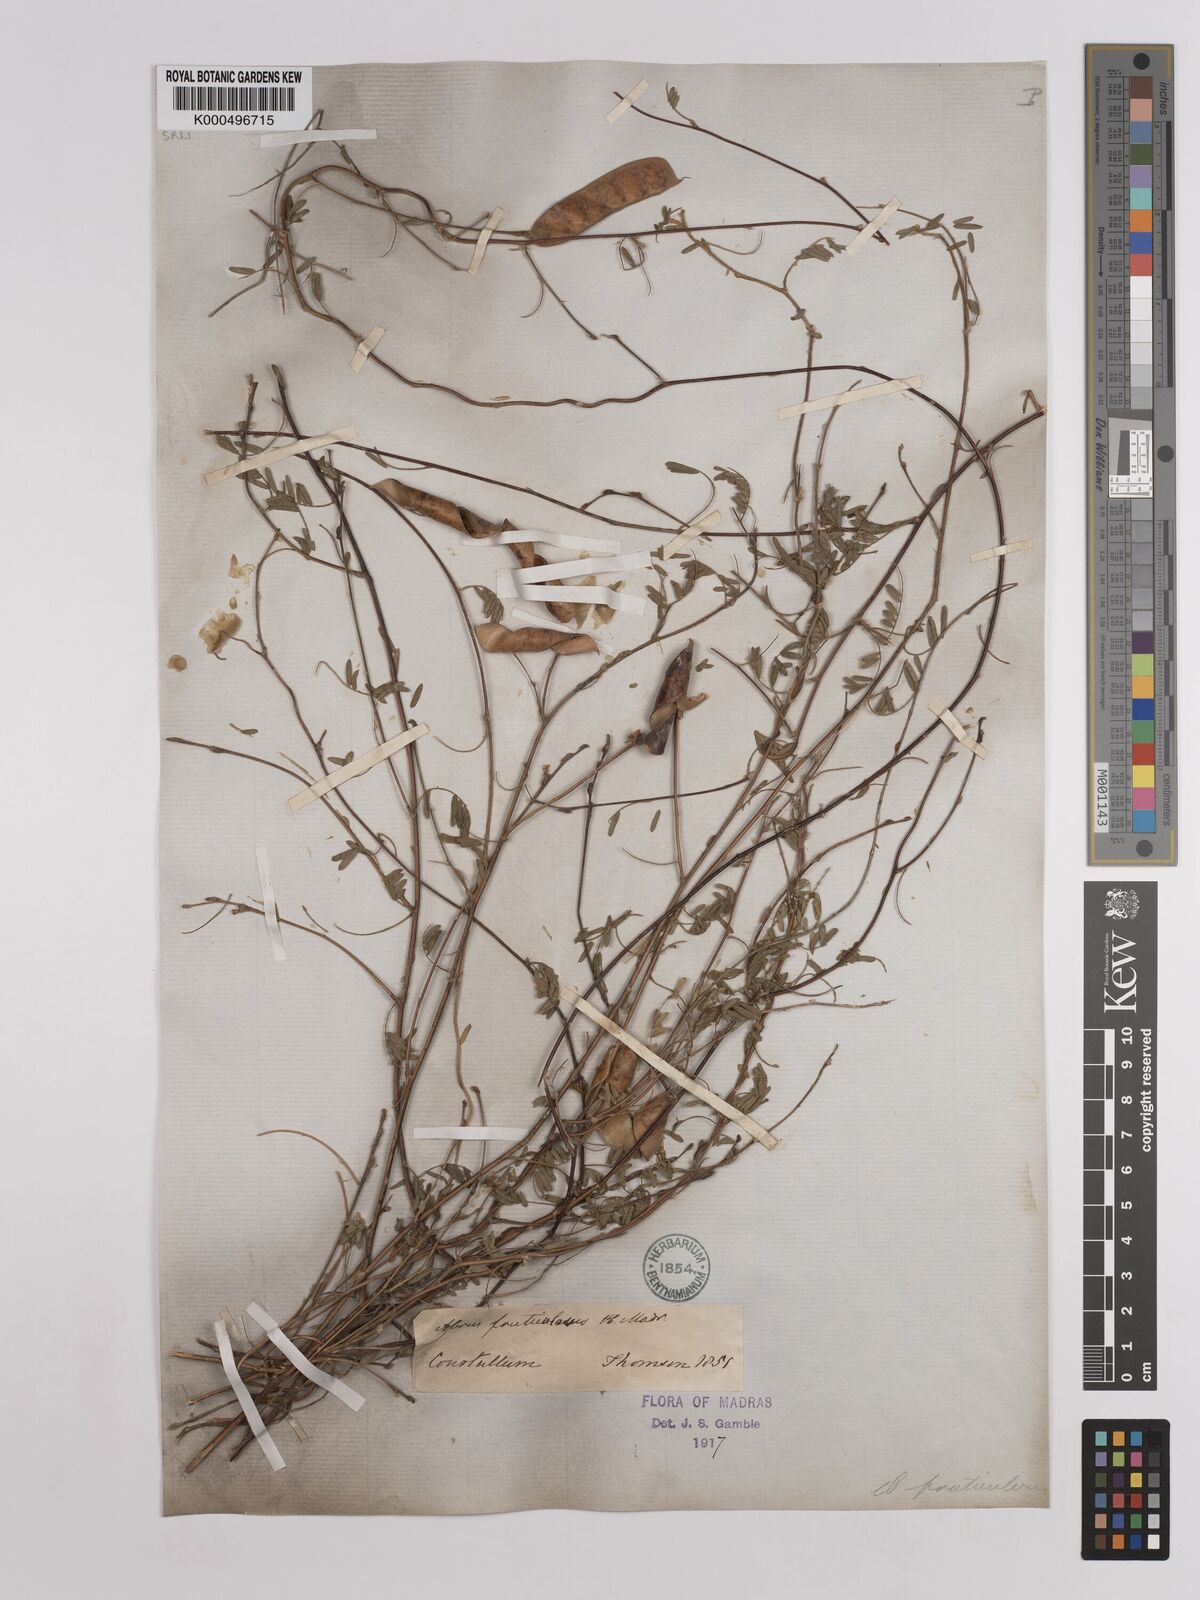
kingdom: Plantae
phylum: Tracheophyta
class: Magnoliopsida
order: Fabales
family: Fabaceae
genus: Abrus
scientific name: Abrus fruticulosus
